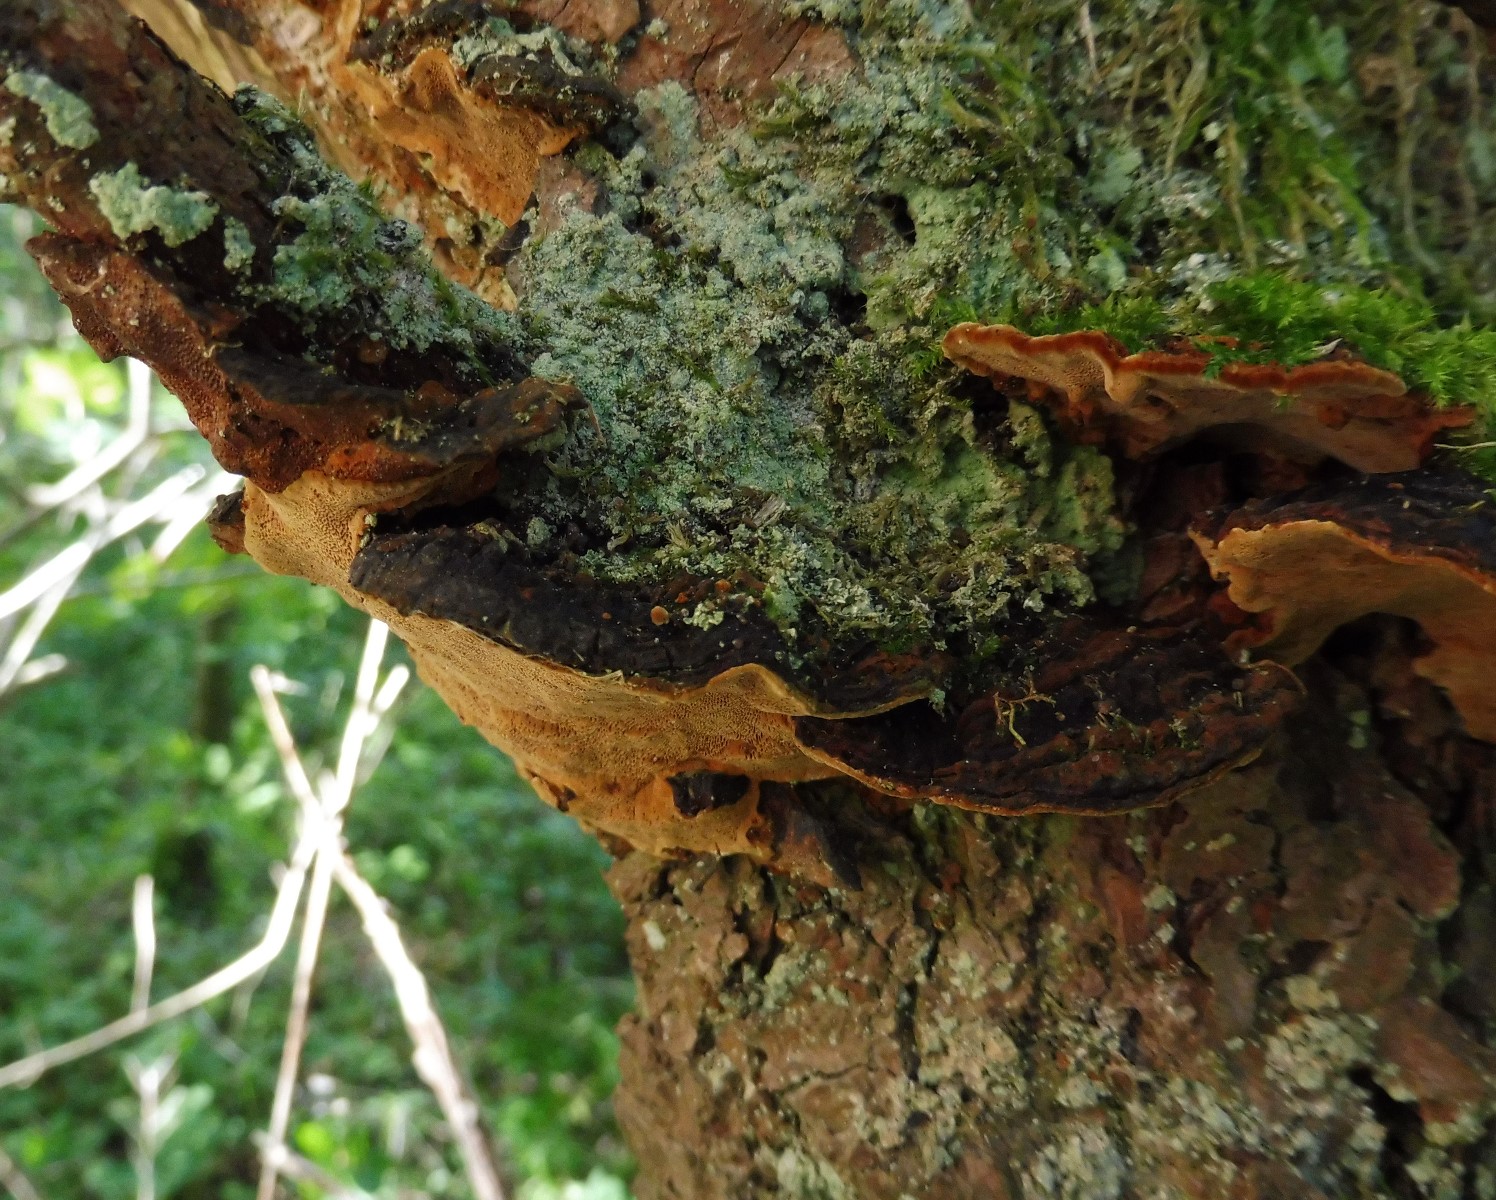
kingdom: Fungi
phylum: Basidiomycota
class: Agaricomycetes
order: Hymenochaetales
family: Hymenochaetaceae
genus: Phellinopsis
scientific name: Phellinopsis conchata
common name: pile-ildporesvamp
